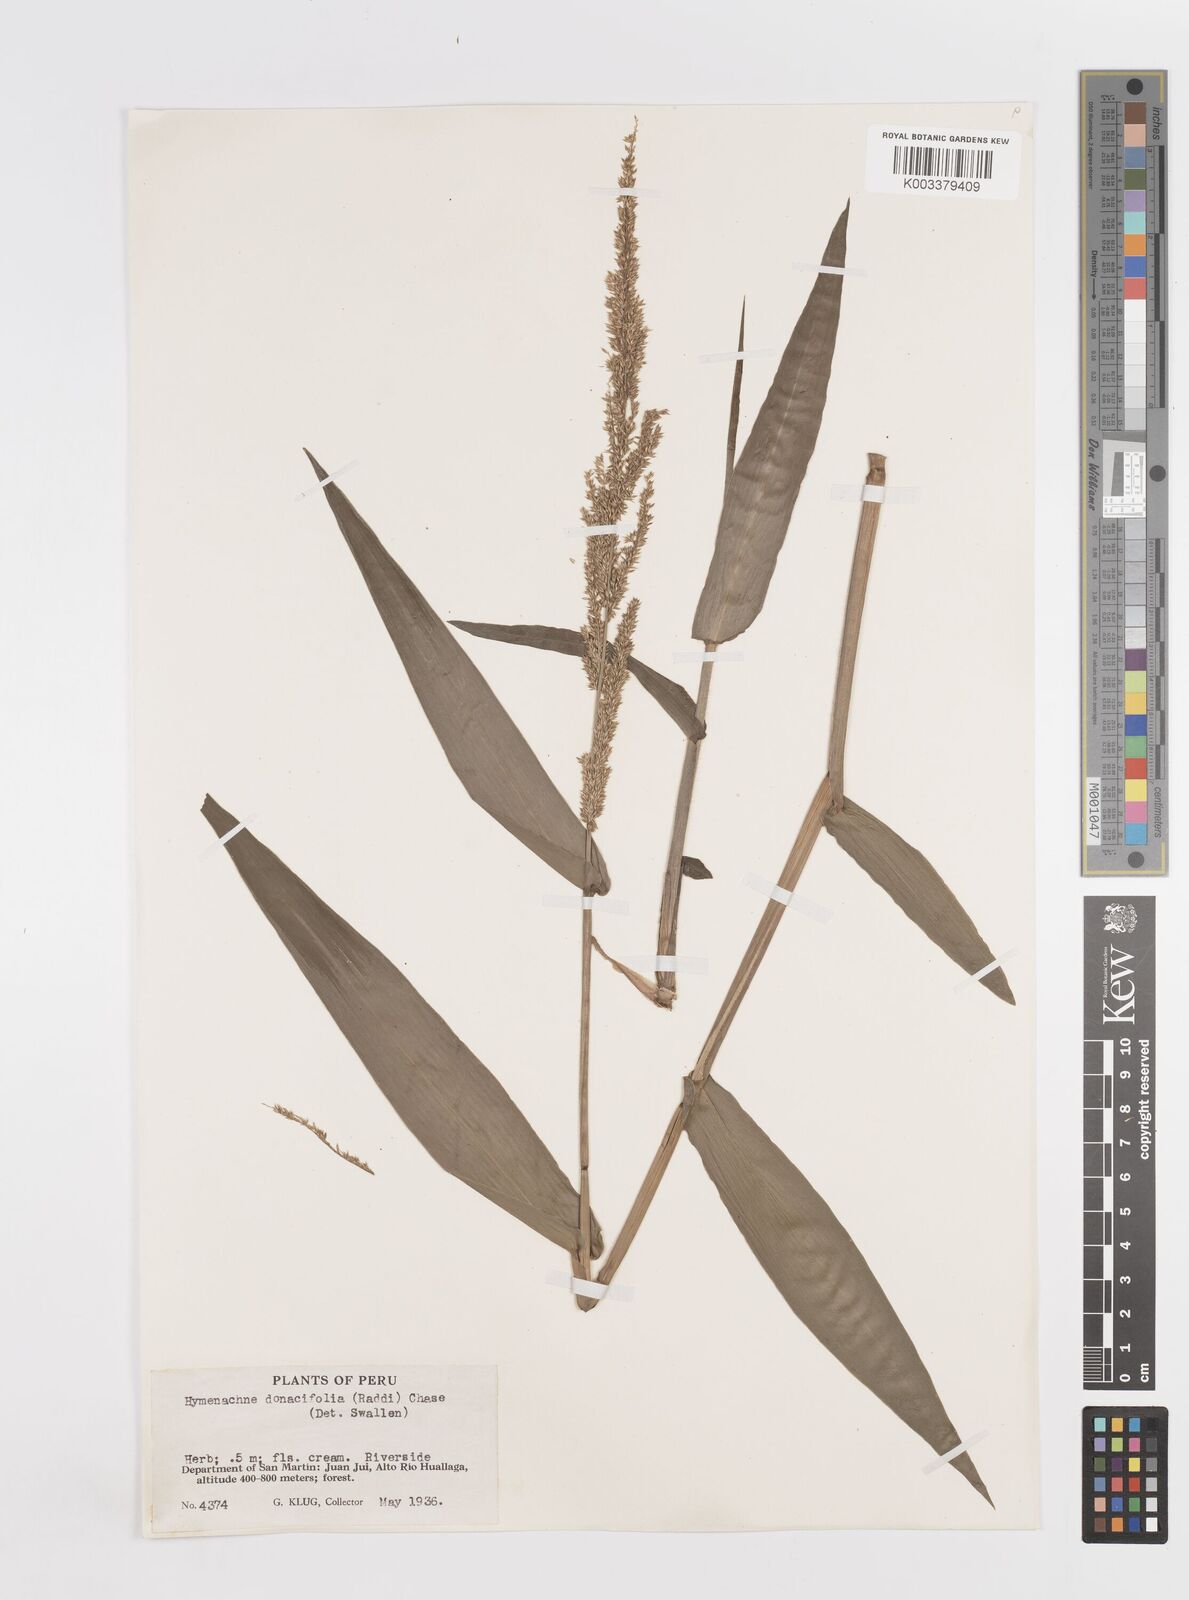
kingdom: Plantae
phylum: Tracheophyta
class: Liliopsida
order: Poales
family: Poaceae
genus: Hymenachne
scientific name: Hymenachne donacifolia
